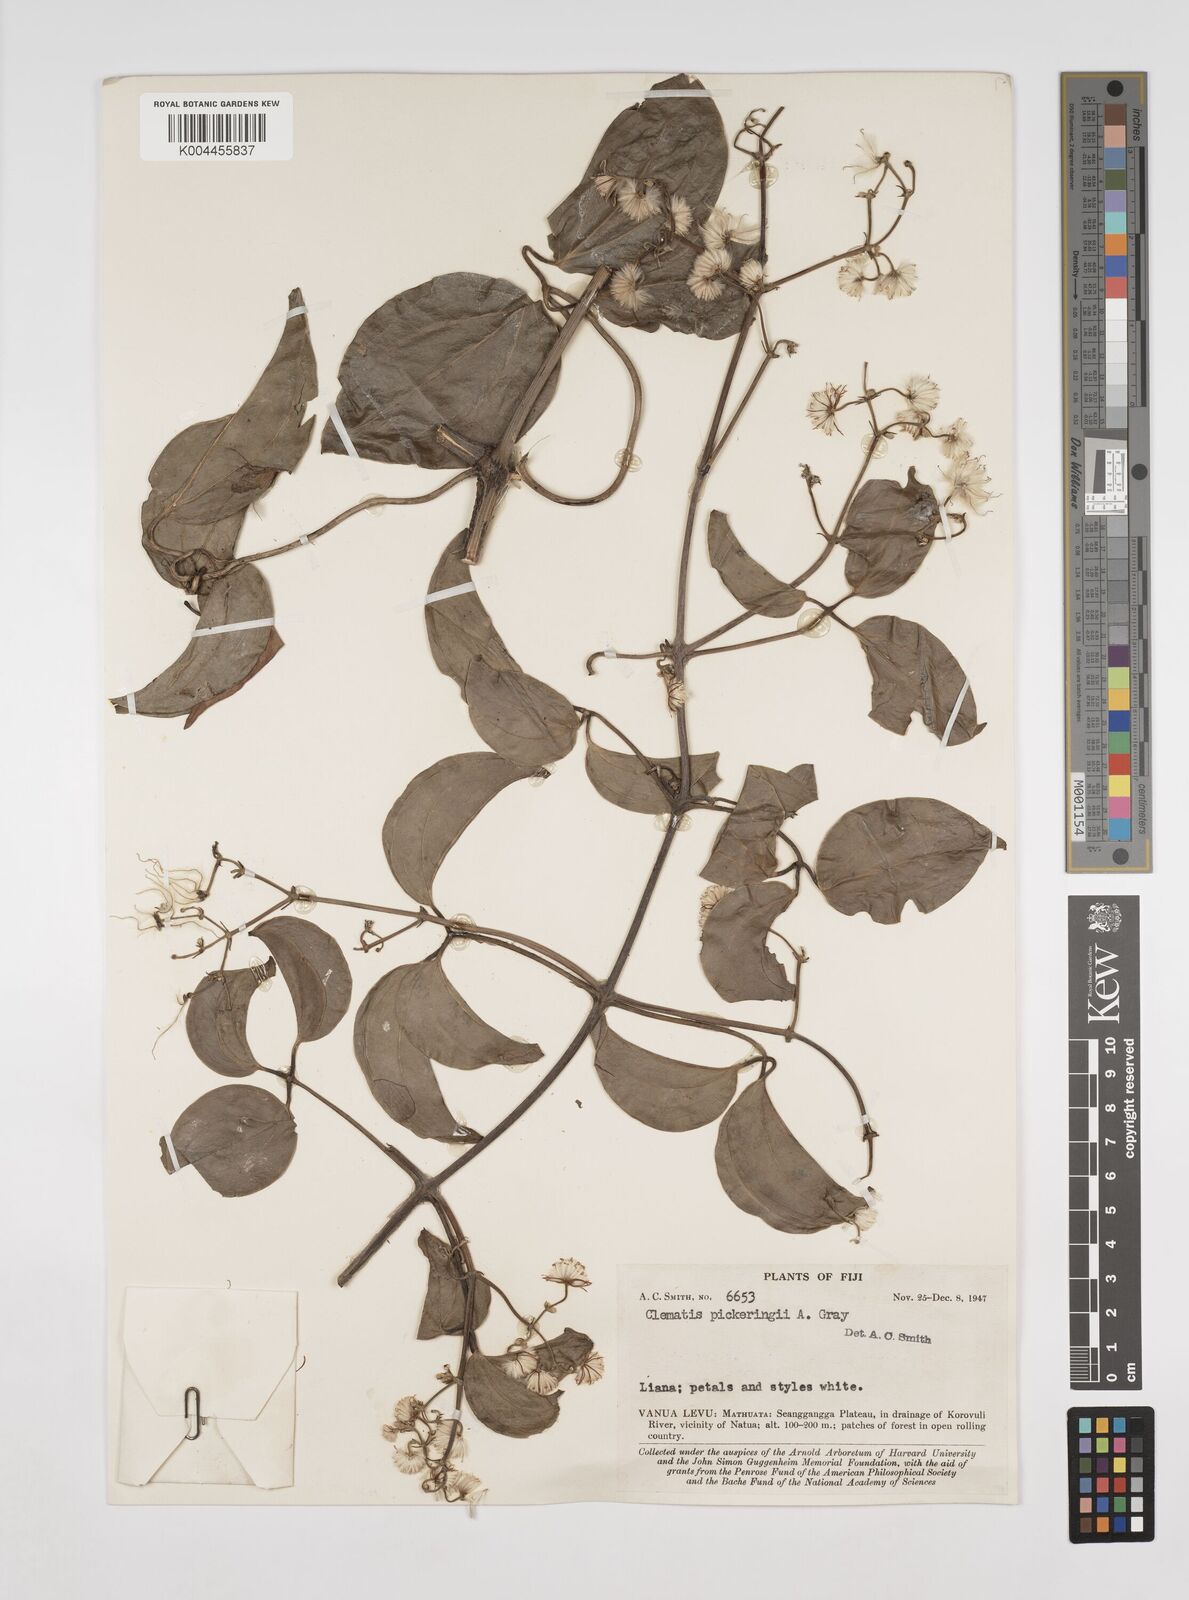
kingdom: Plantae
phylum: Tracheophyta
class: Magnoliopsida
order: Ranunculales
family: Ranunculaceae
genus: Clematis
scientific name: Clematis pickeringii
